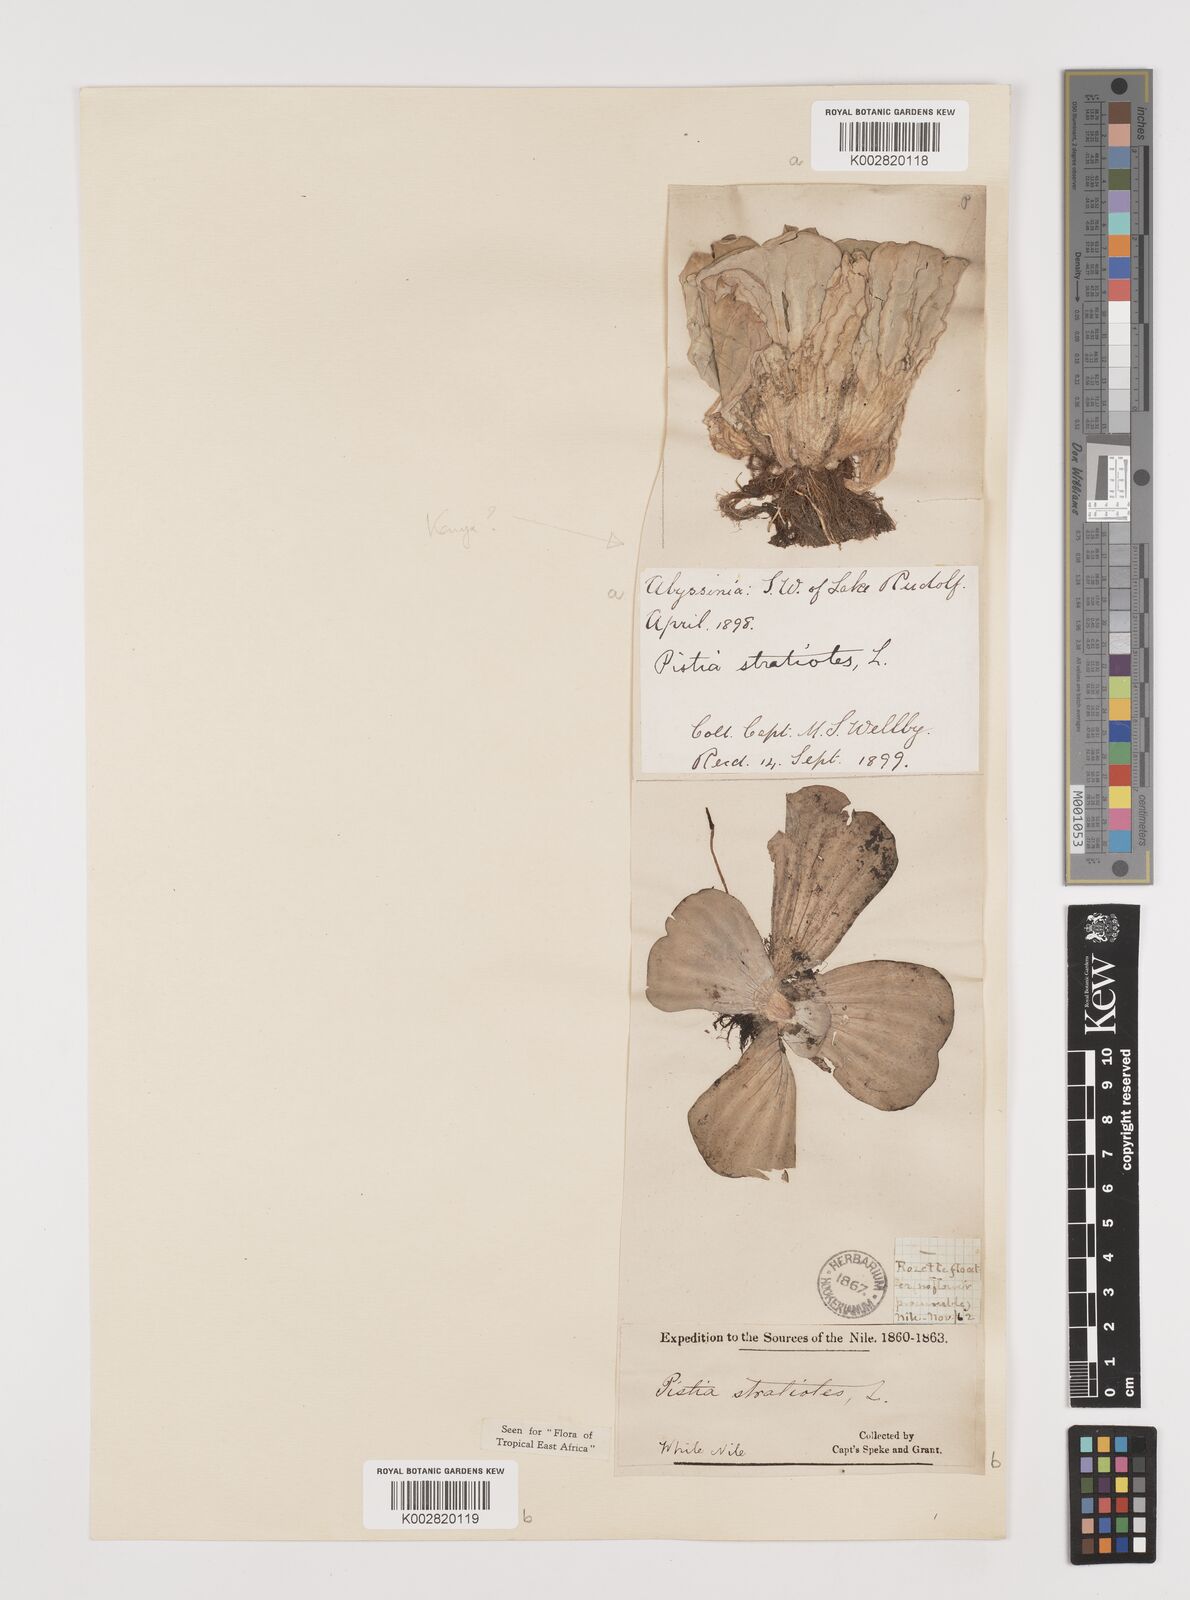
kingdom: Plantae
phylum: Tracheophyta
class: Liliopsida
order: Alismatales
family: Araceae
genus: Pistia
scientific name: Pistia stratiotes
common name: Water lettuce
